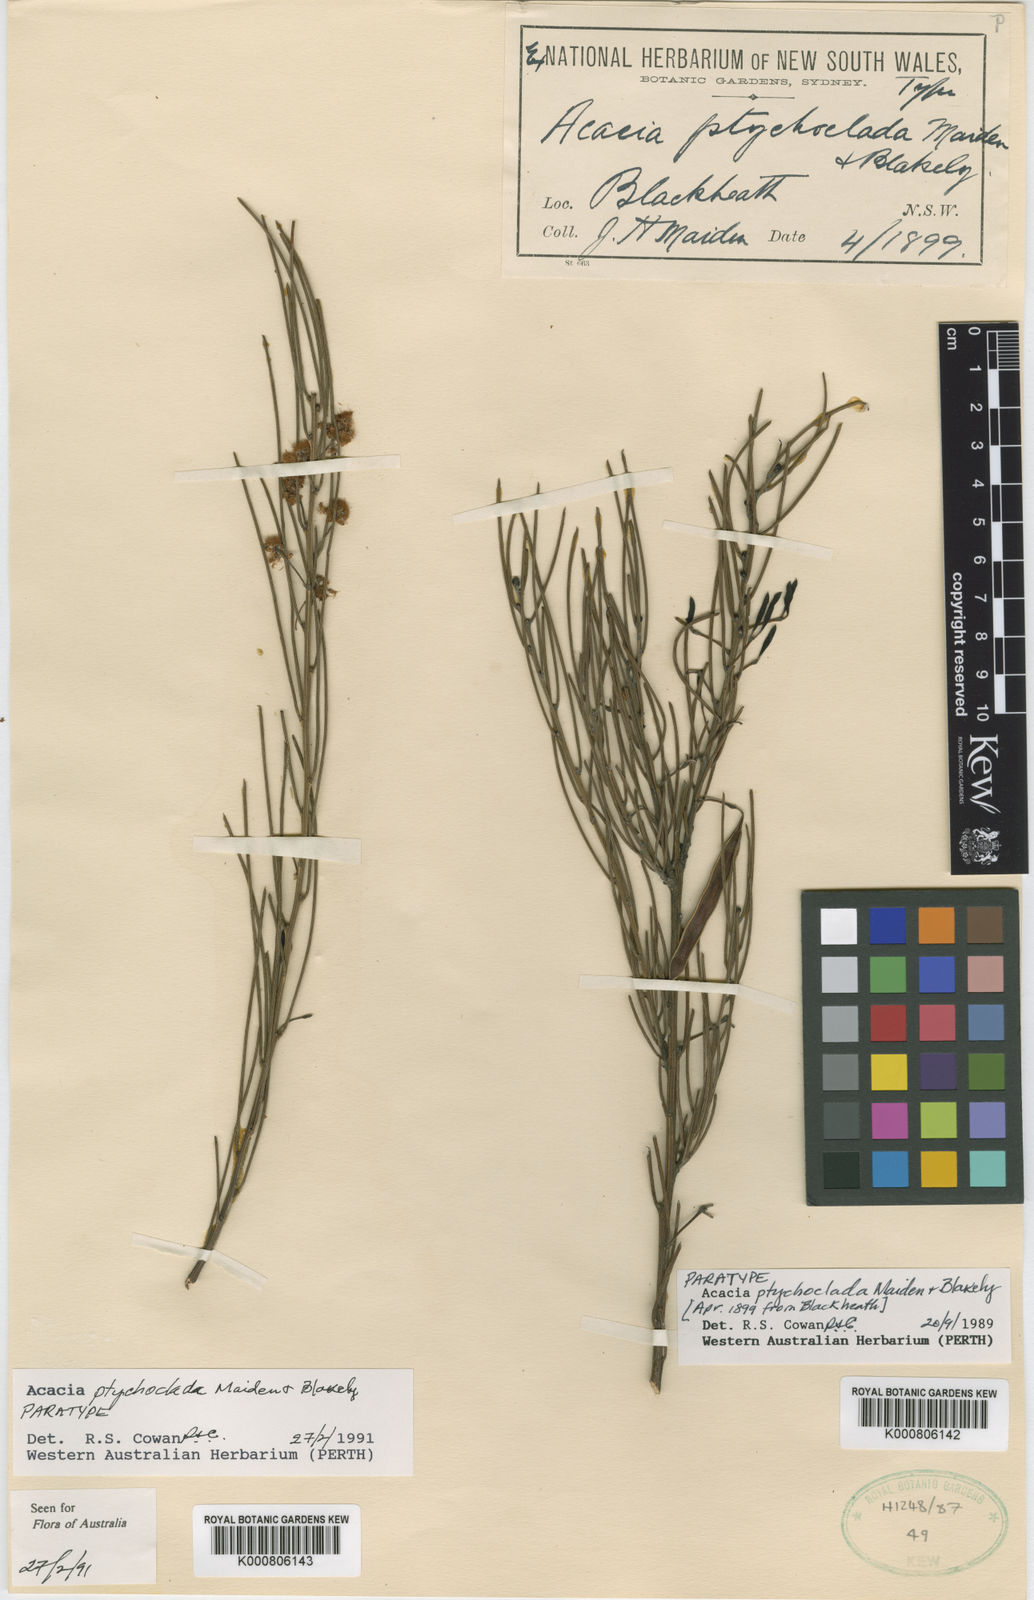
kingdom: Plantae
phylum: Tracheophyta
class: Magnoliopsida
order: Fabales
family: Fabaceae
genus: Acacia
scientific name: Acacia ptychoclada
